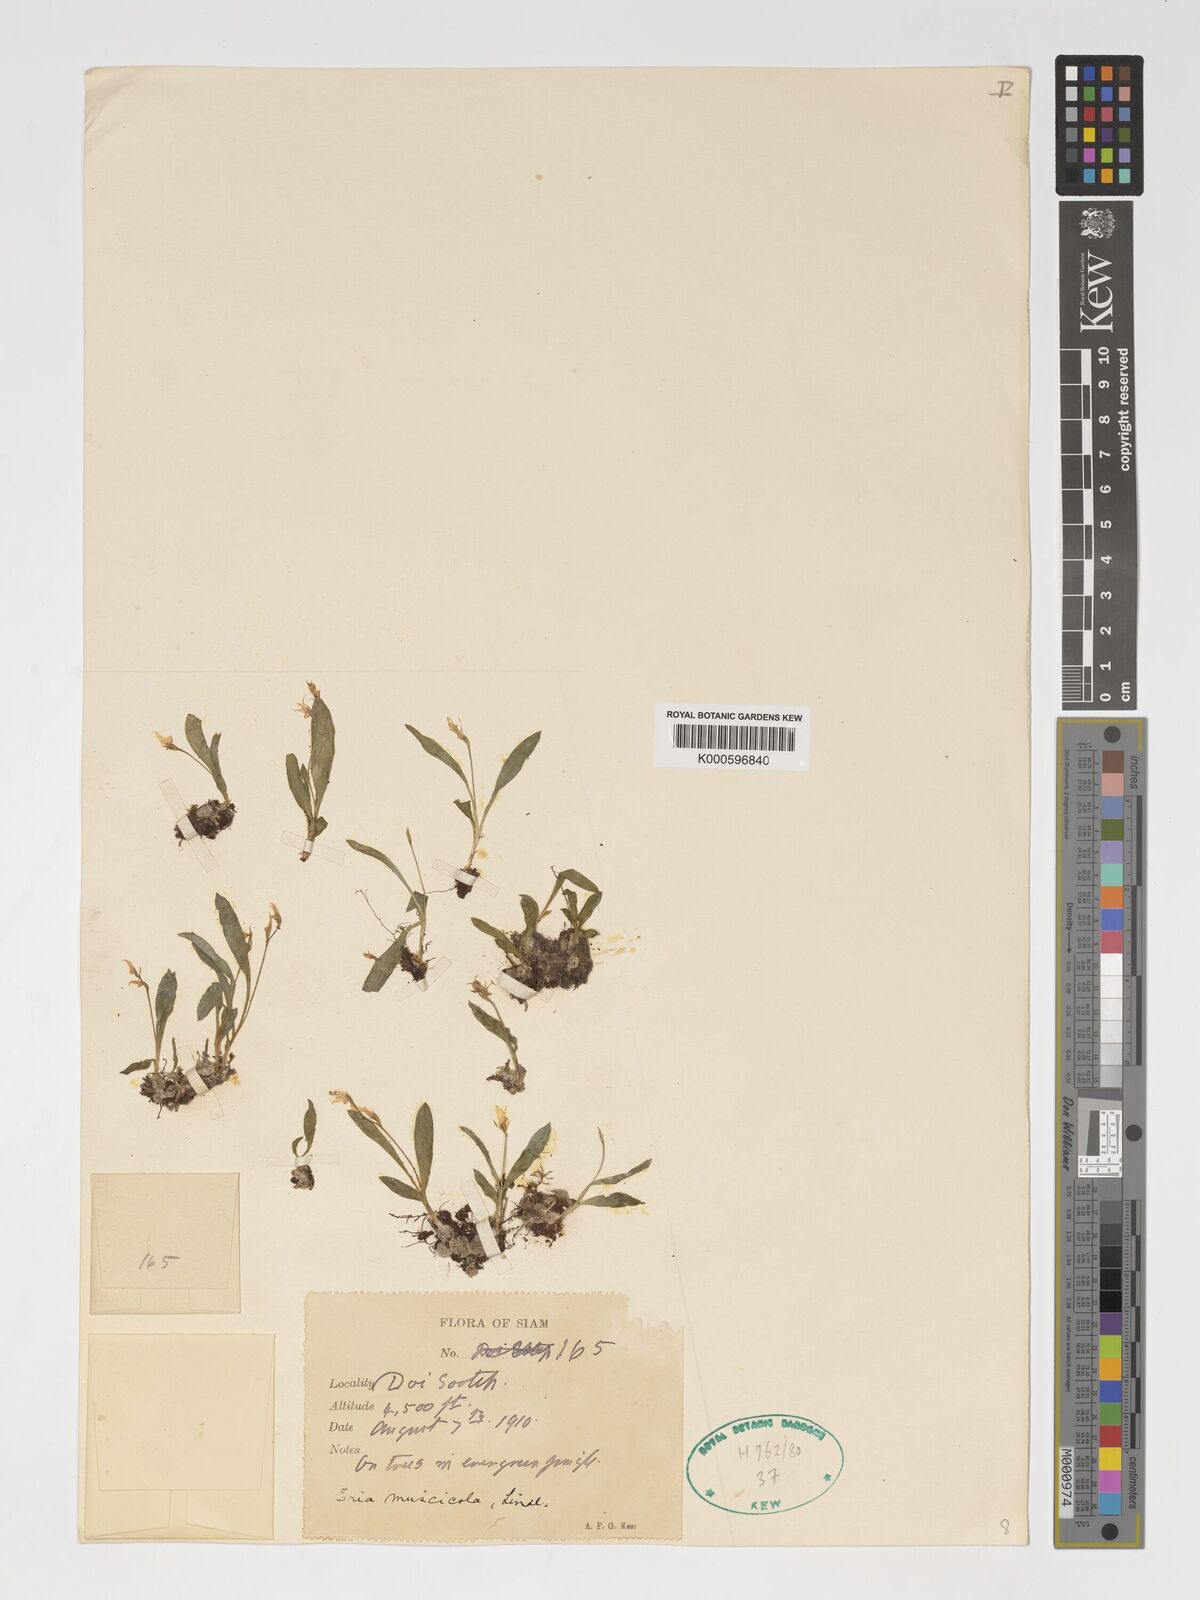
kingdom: Plantae
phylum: Tracheophyta
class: Liliopsida
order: Asparagales
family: Orchidaceae
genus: Porpax
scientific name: Porpax parviflorum
